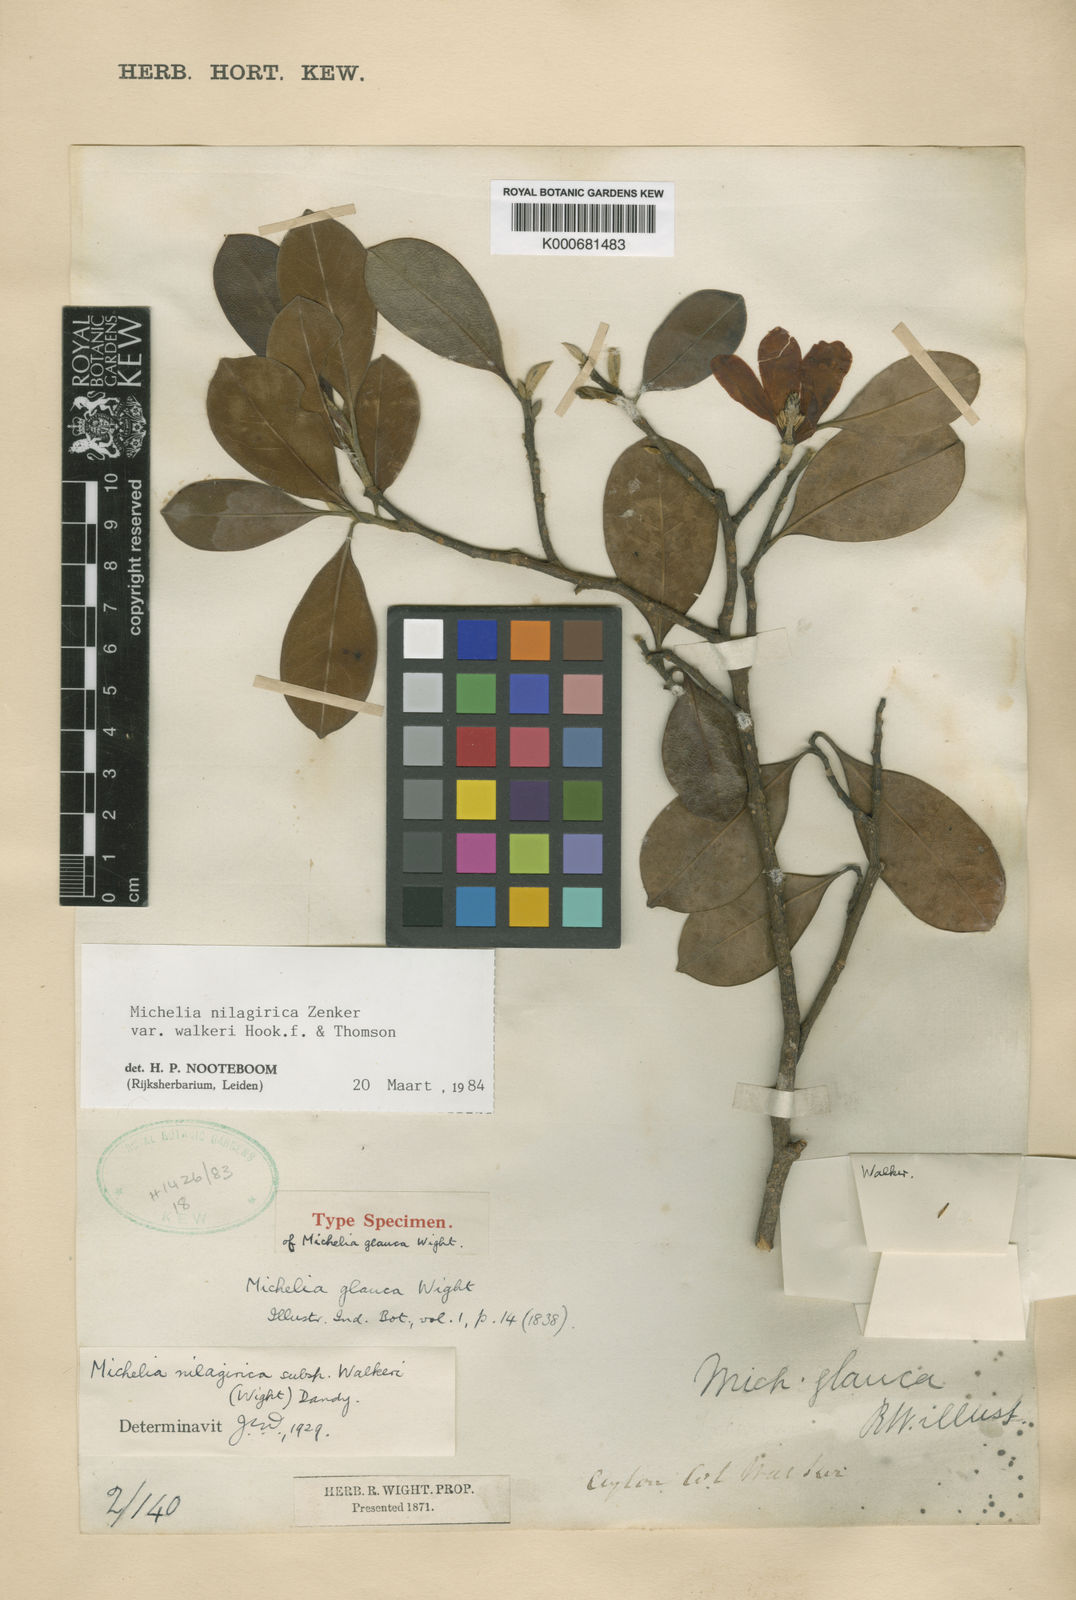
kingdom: Plantae
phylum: Tracheophyta
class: Magnoliopsida
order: Magnoliales
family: Magnoliaceae
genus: Magnolia
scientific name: Magnolia nilagirica
